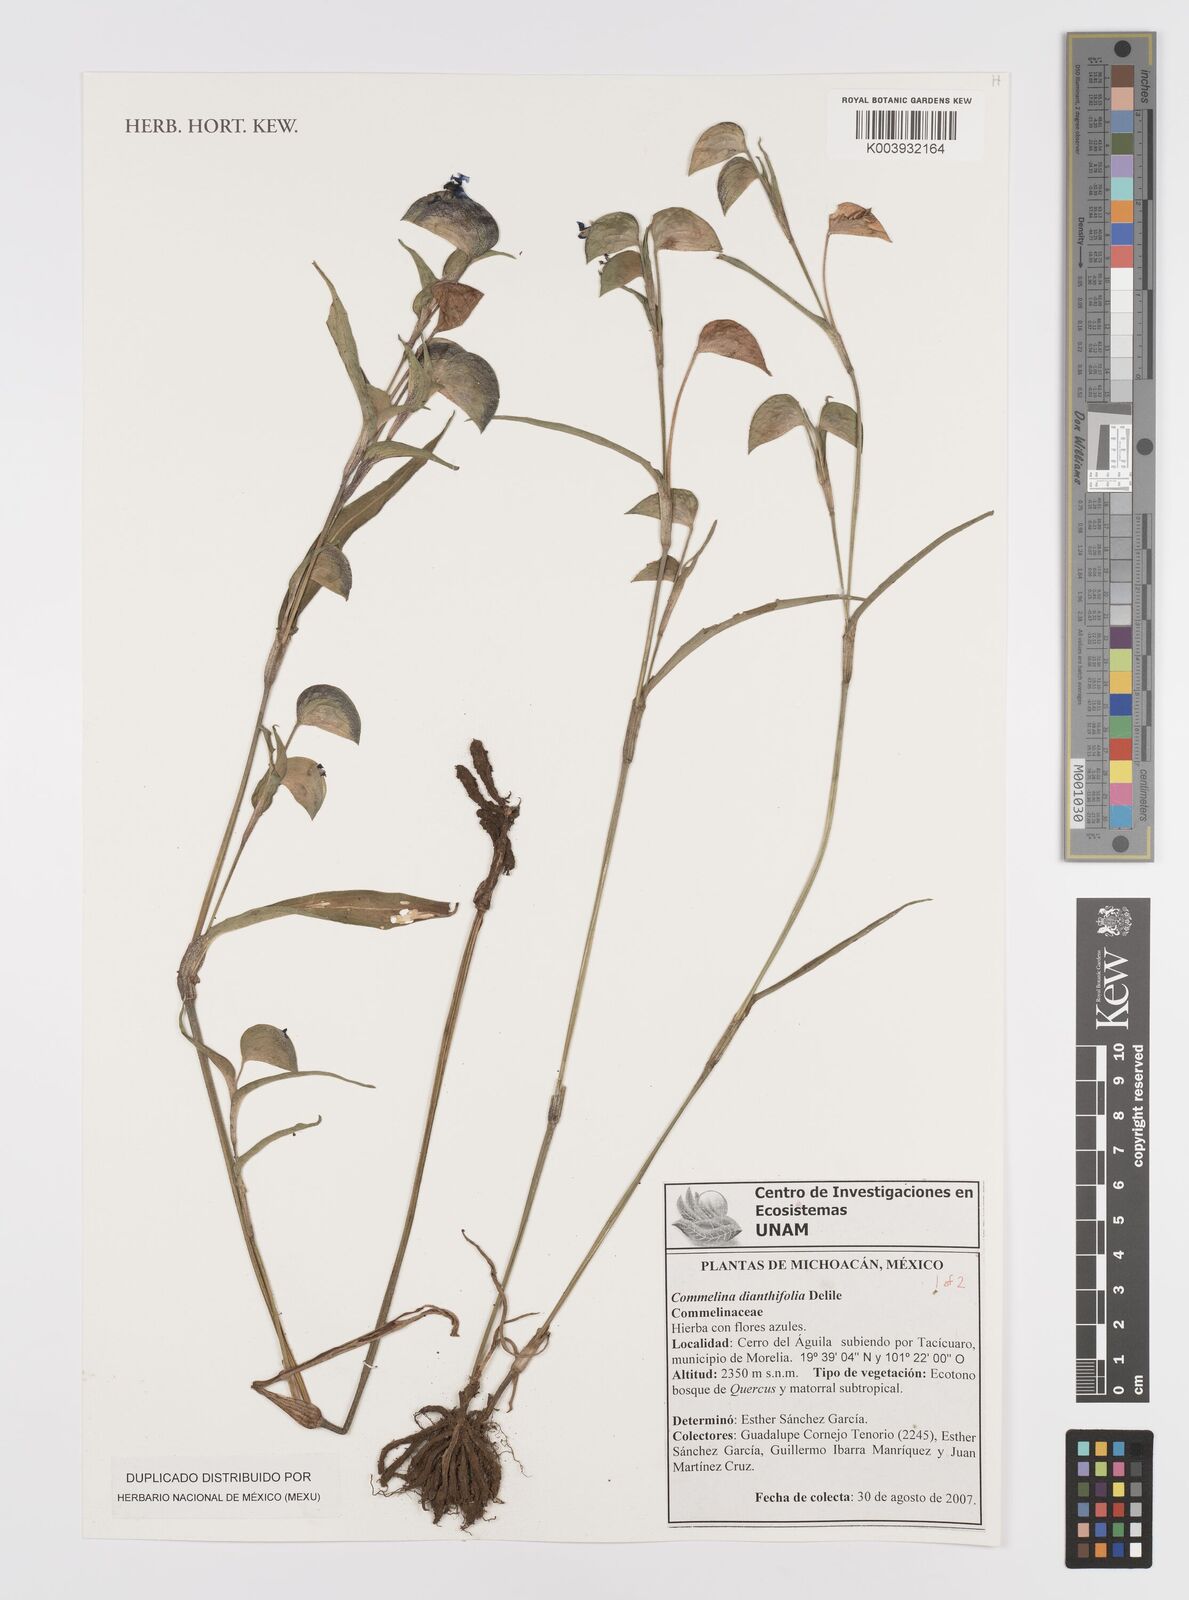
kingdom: Plantae
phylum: Tracheophyta
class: Liliopsida
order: Commelinales
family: Commelinaceae
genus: Commelina
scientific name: Commelina dianthifolia
